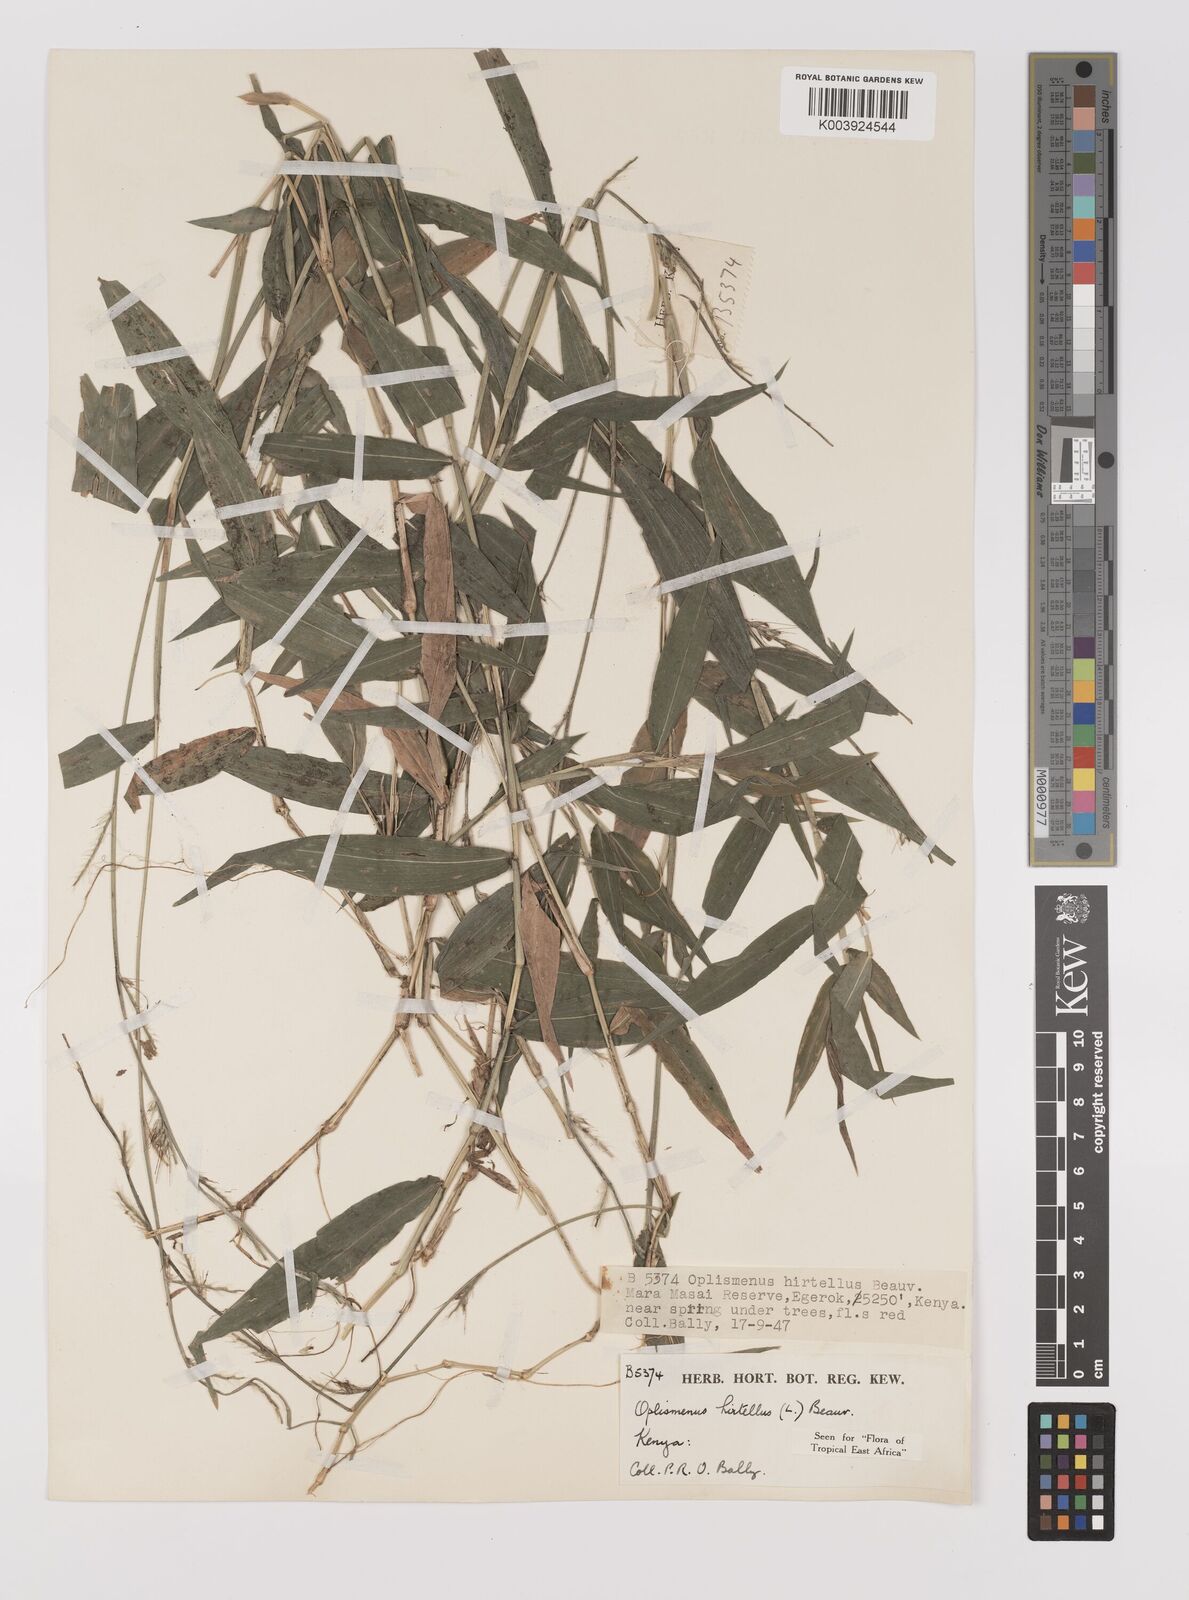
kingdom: Plantae
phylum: Tracheophyta
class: Liliopsida
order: Poales
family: Poaceae
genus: Oplismenus
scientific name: Oplismenus hirtellus
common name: Basketgrass
